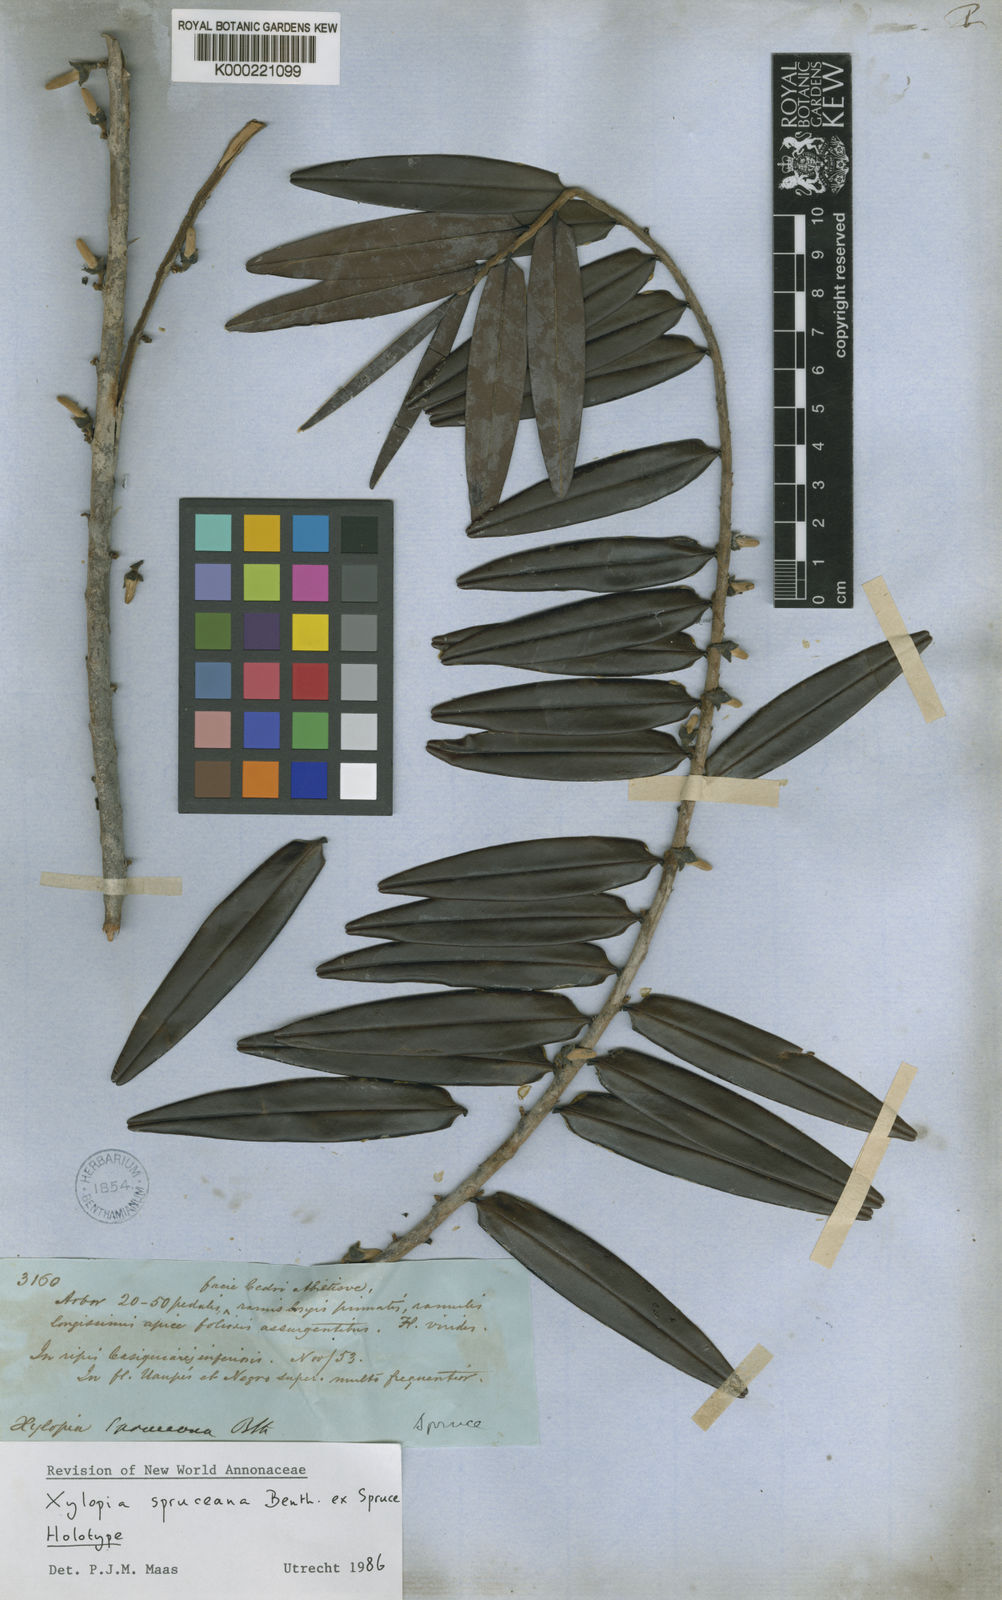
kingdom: Plantae
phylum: Tracheophyta
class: Magnoliopsida
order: Magnoliales
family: Annonaceae
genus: Xylopia
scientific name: Xylopia spruceana
